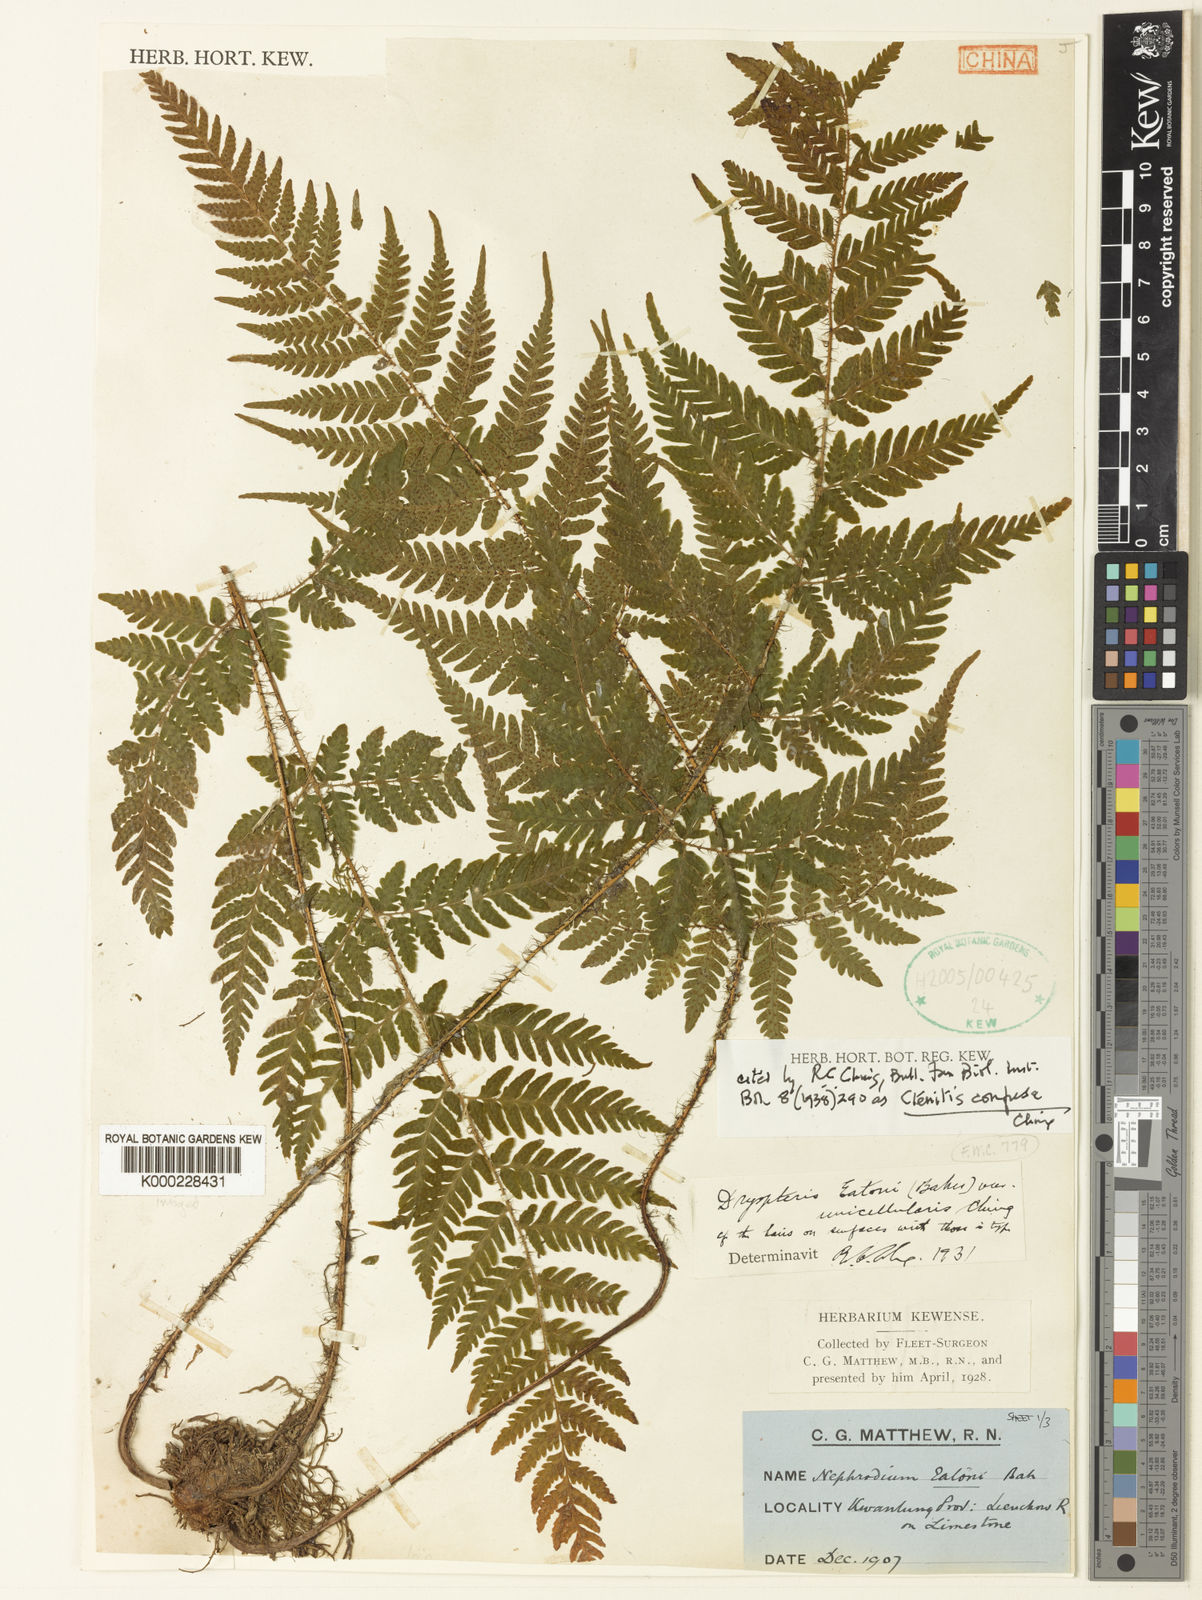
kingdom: Plantae
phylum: Tracheophyta
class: Polypodiopsida
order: Polypodiales
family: Dryopteridaceae
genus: Ctenitis
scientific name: Ctenitis eatonii
